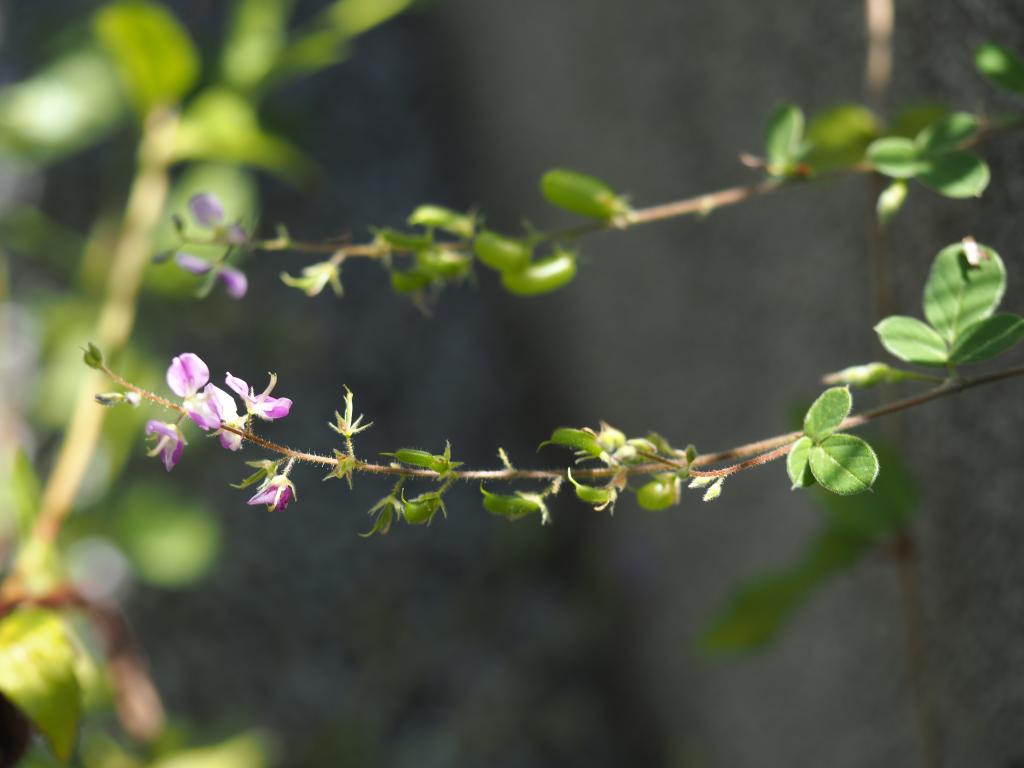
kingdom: Plantae
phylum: Tracheophyta
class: Magnoliopsida
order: Fabales
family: Fabaceae
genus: Pycnospora
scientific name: Pycnospora lutescens
